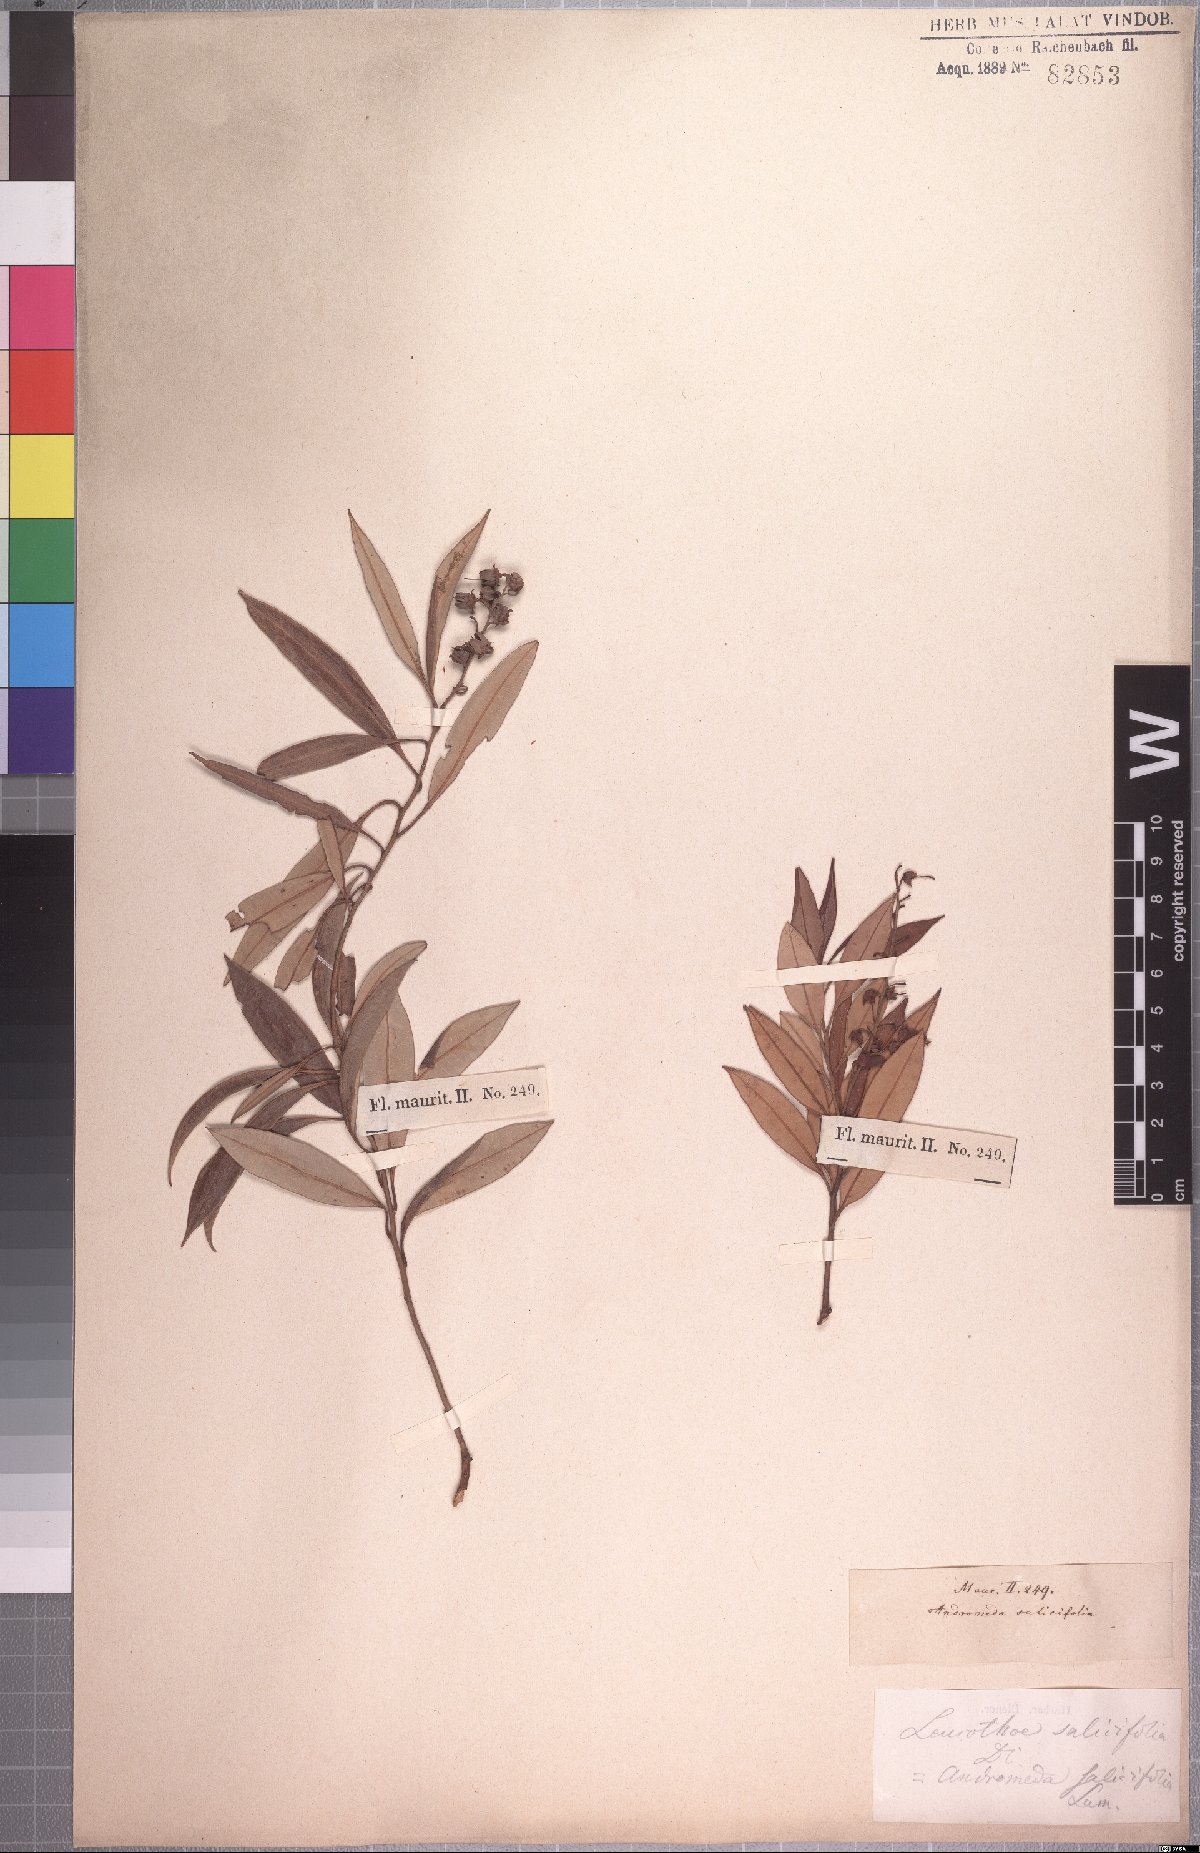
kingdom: Plantae
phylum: Tracheophyta
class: Magnoliopsida
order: Ericales
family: Ericaceae
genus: Agarista
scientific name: Agarista salicifolia
